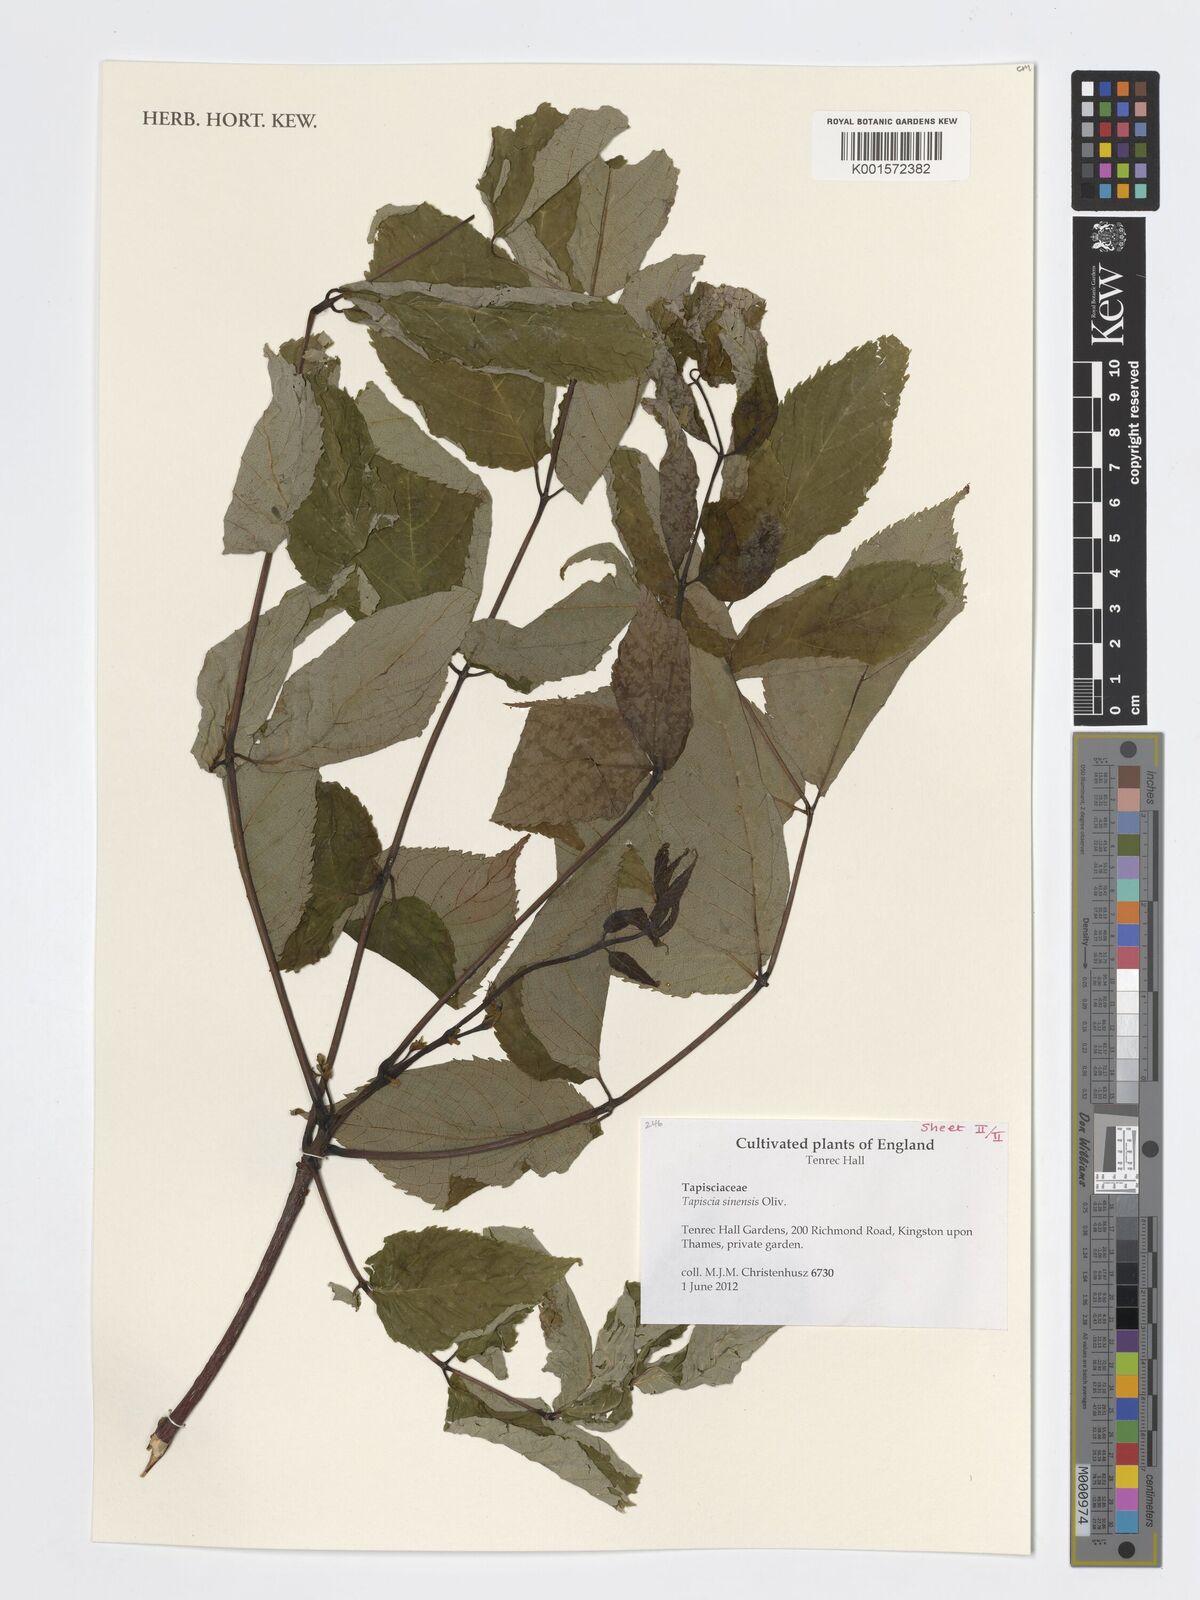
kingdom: Plantae
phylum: Tracheophyta
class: Magnoliopsida
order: Huerteales
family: Tapisciaceae
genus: Tapiscia
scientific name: Tapiscia sinensis
